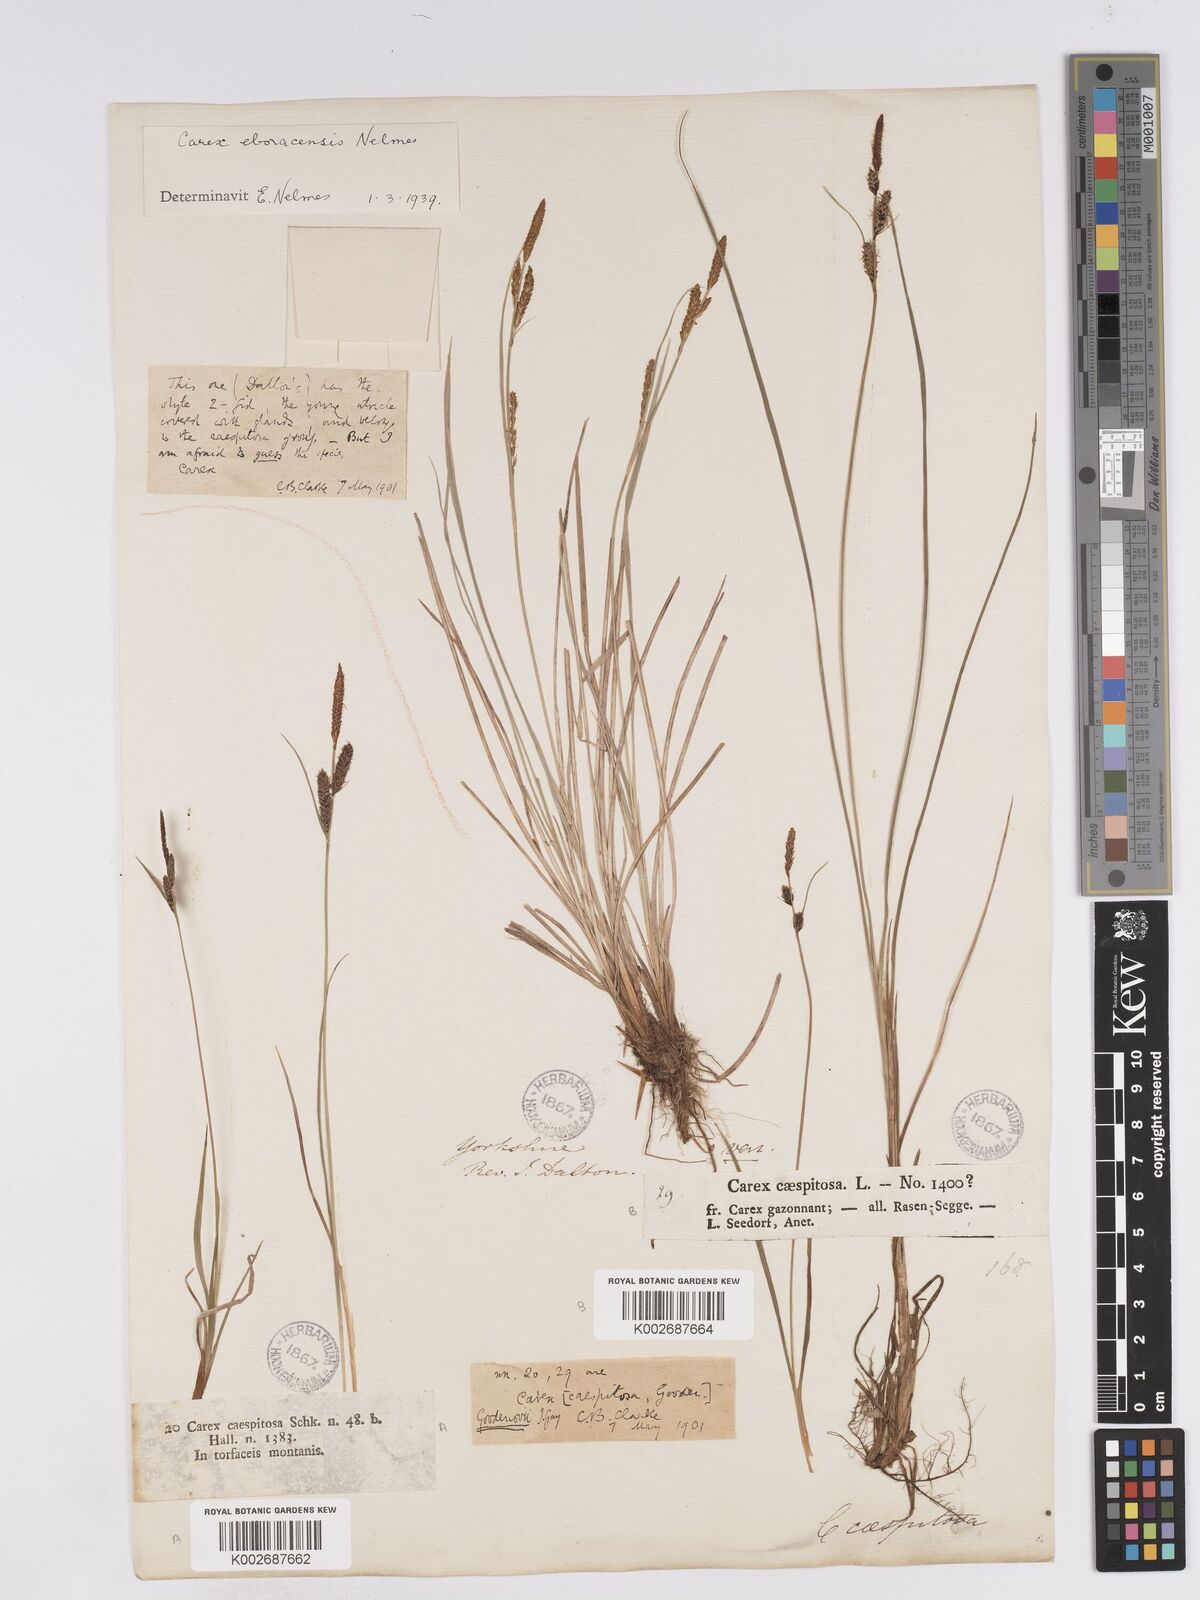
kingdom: Plantae
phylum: Tracheophyta
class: Liliopsida
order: Poales
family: Cyperaceae
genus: Carex
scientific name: Carex nigra
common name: Common sedge
